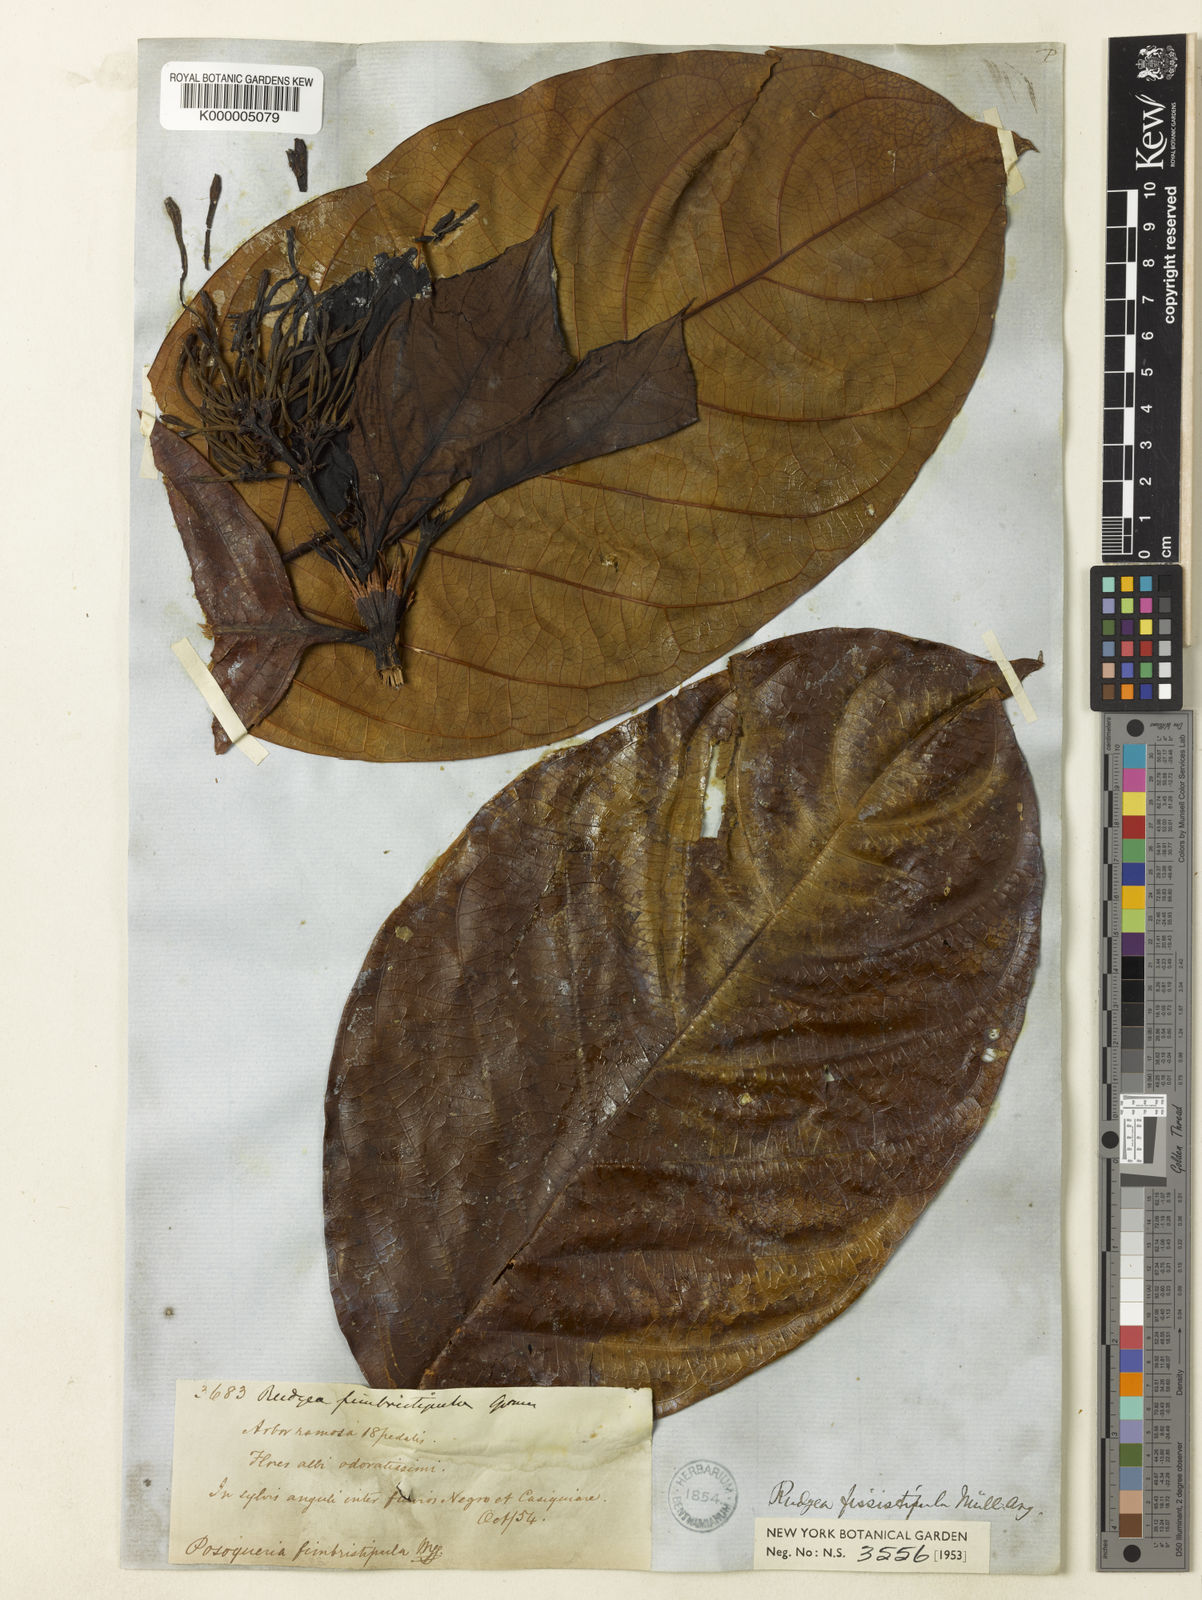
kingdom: Plantae
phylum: Tracheophyta
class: Magnoliopsida
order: Gentianales
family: Rubiaceae
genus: Rudgea
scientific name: Rudgea lanceifolia
